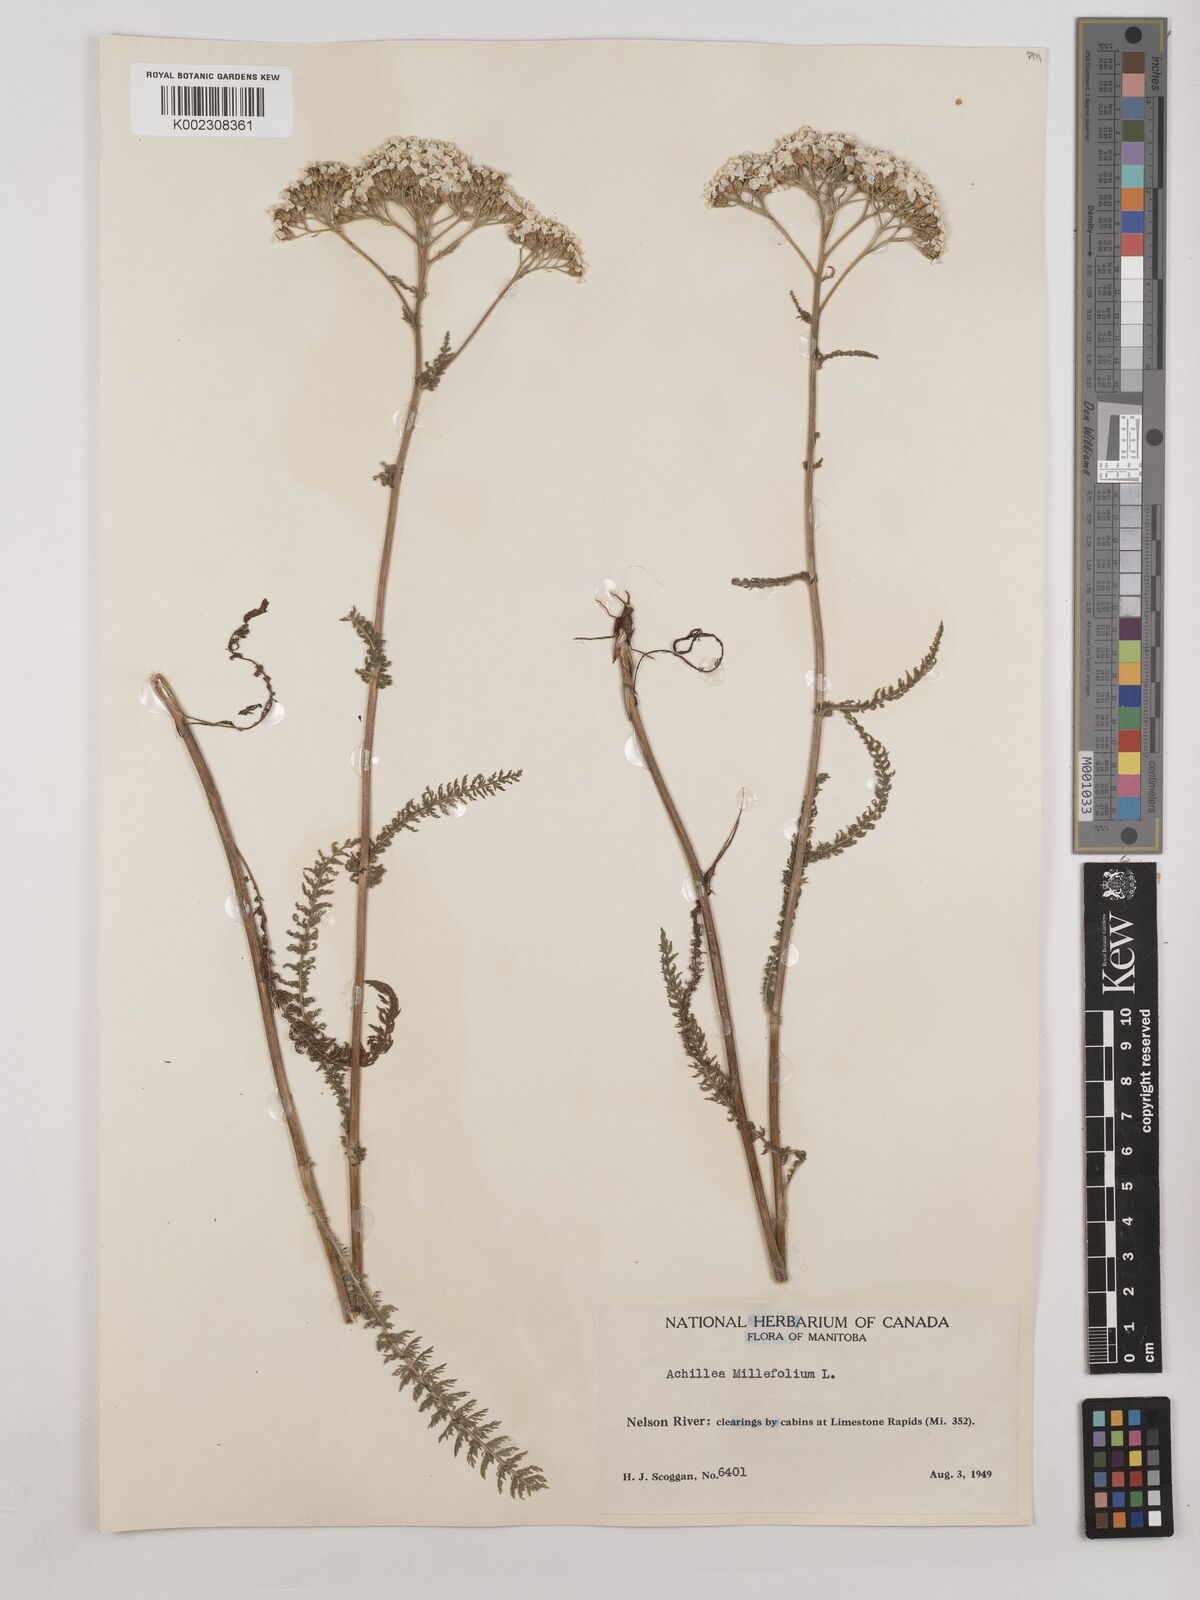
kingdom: Plantae
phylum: Tracheophyta
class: Magnoliopsida
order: Asterales
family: Asteraceae
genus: Achillea
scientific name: Achillea millefolium
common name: Yarrow
